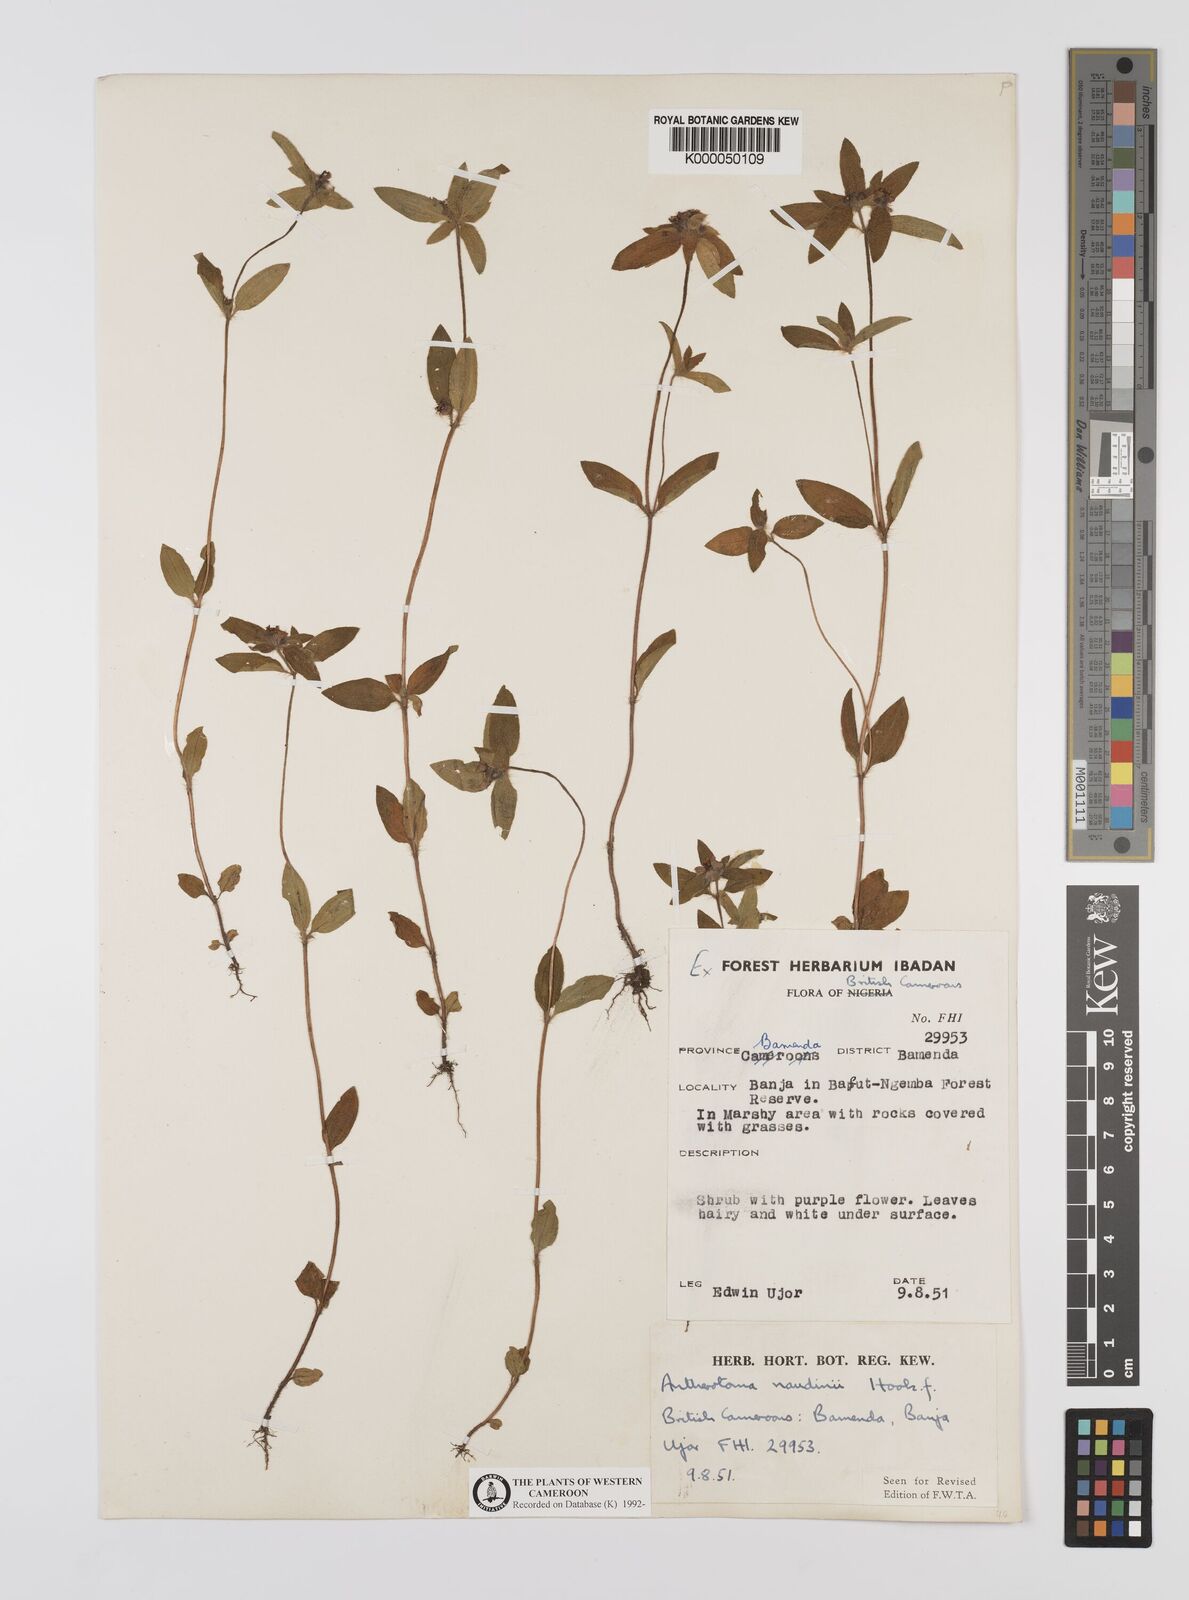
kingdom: Plantae
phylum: Tracheophyta
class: Magnoliopsida
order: Myrtales
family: Melastomataceae
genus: Antherotoma
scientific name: Antherotoma naudinii
